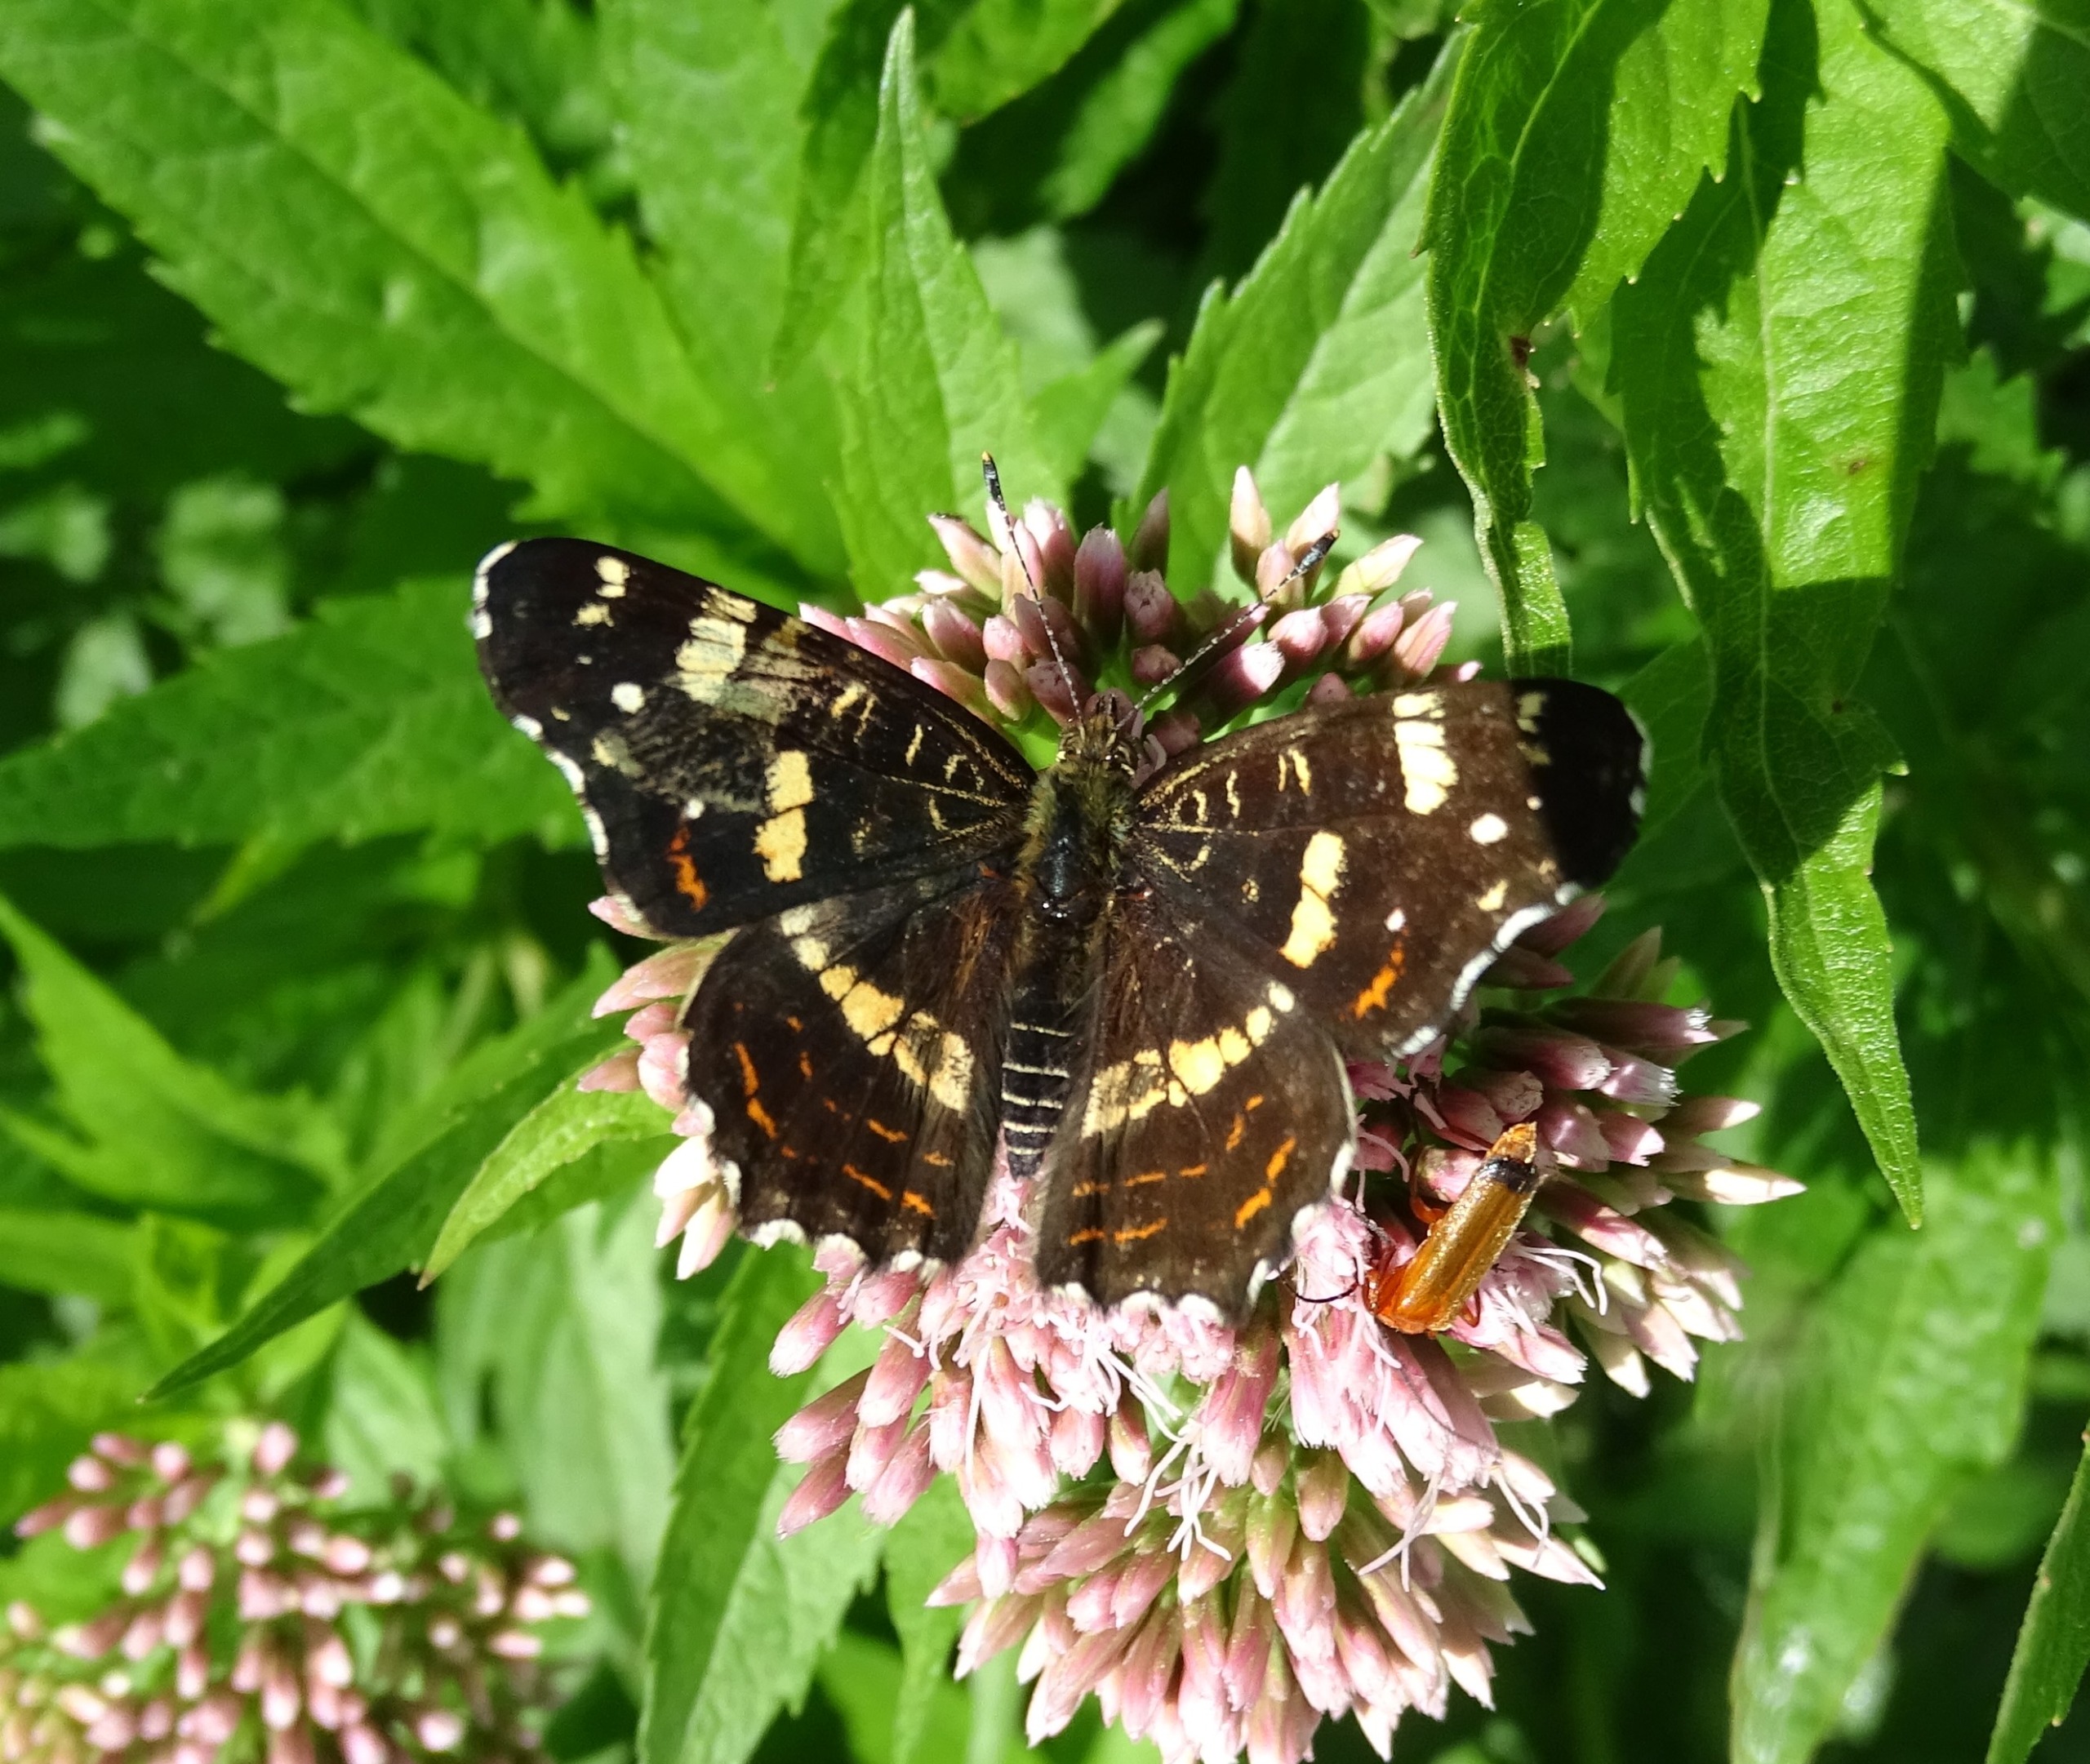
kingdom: Animalia
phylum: Arthropoda
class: Insecta
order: Lepidoptera
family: Nymphalidae
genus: Araschnia
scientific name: Araschnia levana
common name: Nældesommerfugl
